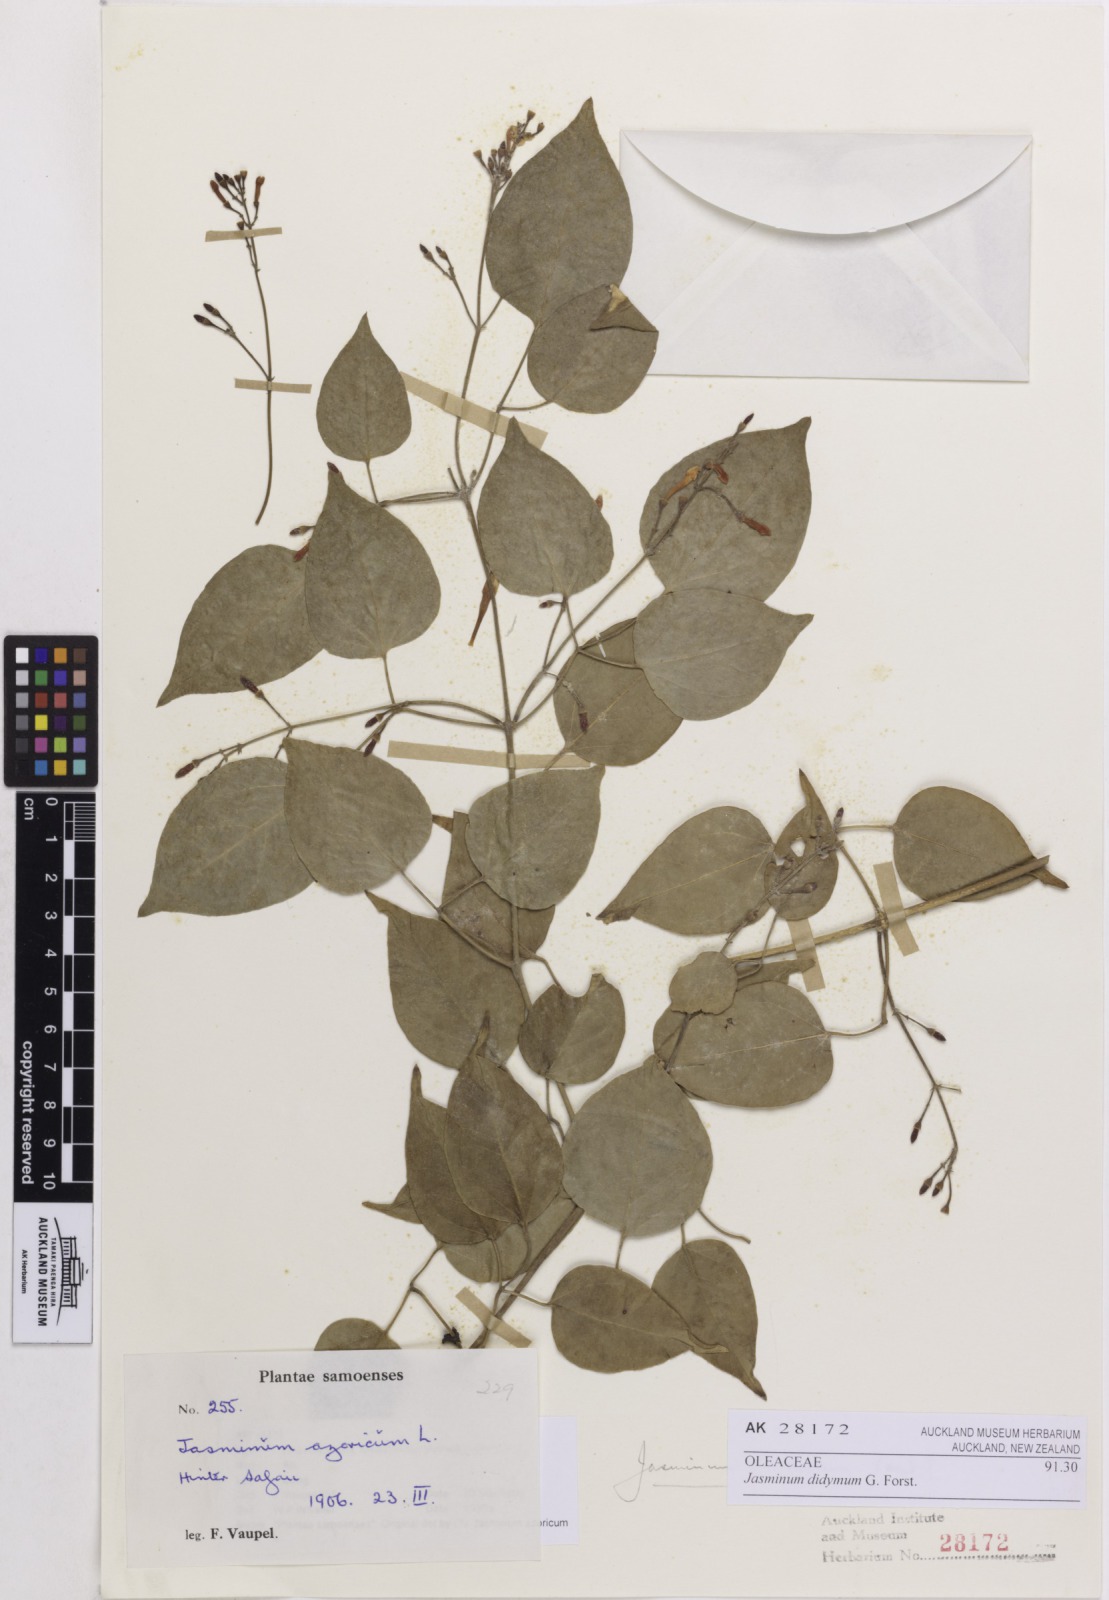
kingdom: Plantae
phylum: Tracheophyta
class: Magnoliopsida
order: Lamiales
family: Oleaceae
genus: Jasminum
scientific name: Jasminum didymum
